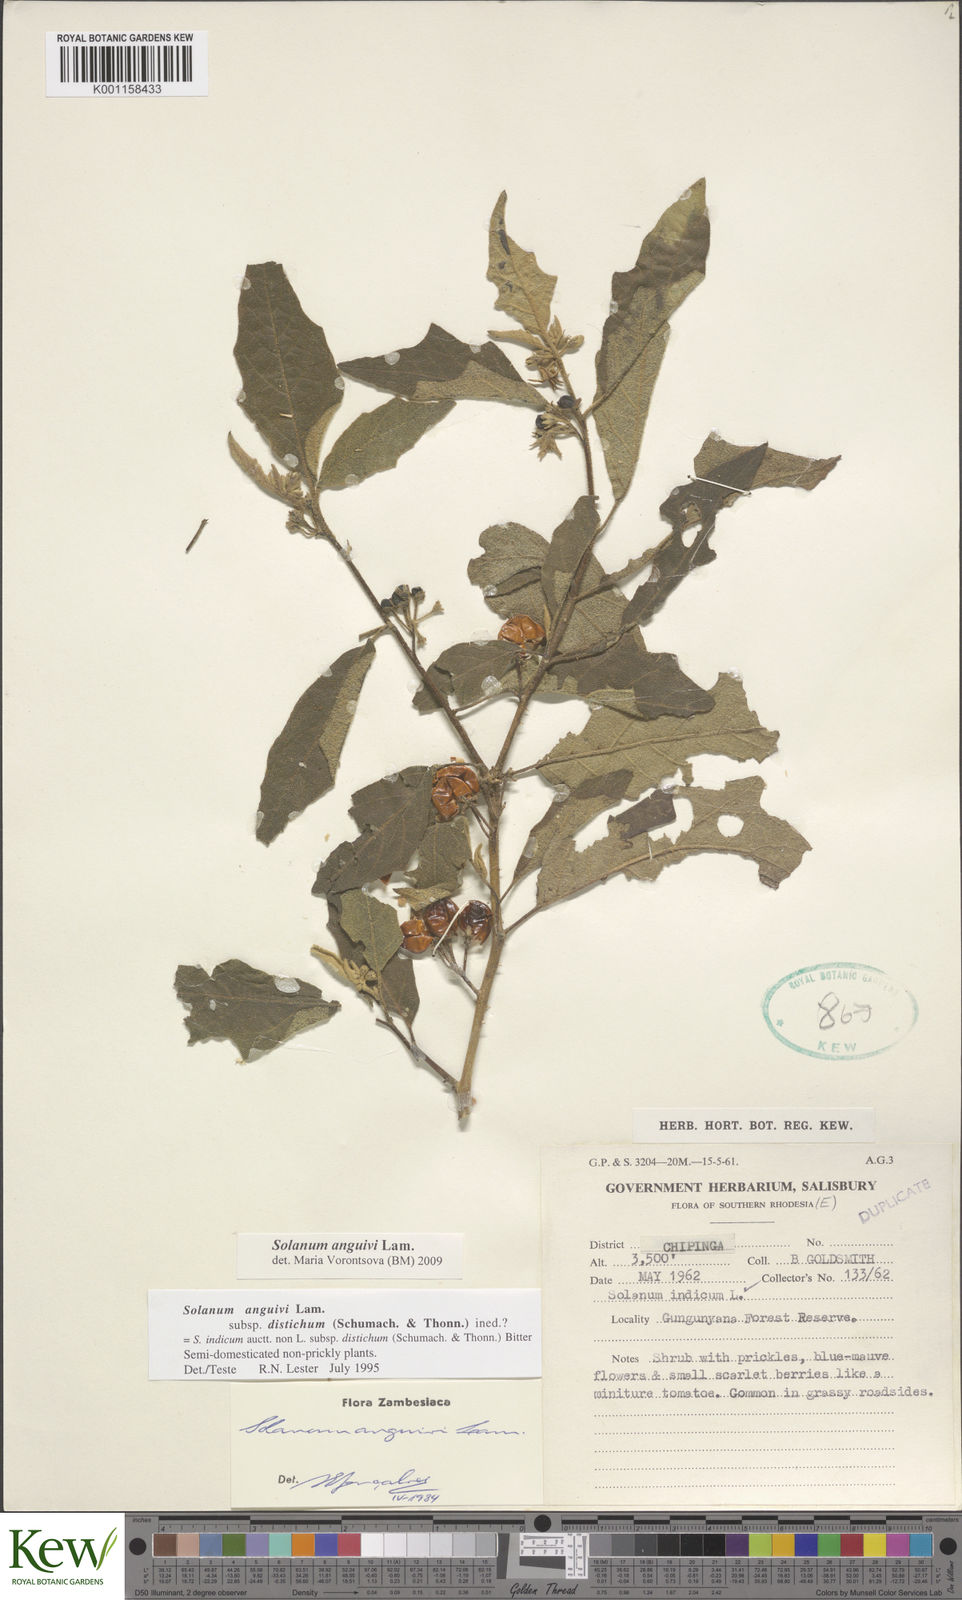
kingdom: Plantae
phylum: Tracheophyta
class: Magnoliopsida
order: Solanales
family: Solanaceae
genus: Solanum
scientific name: Solanum anguivi
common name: Forest bitterberry
